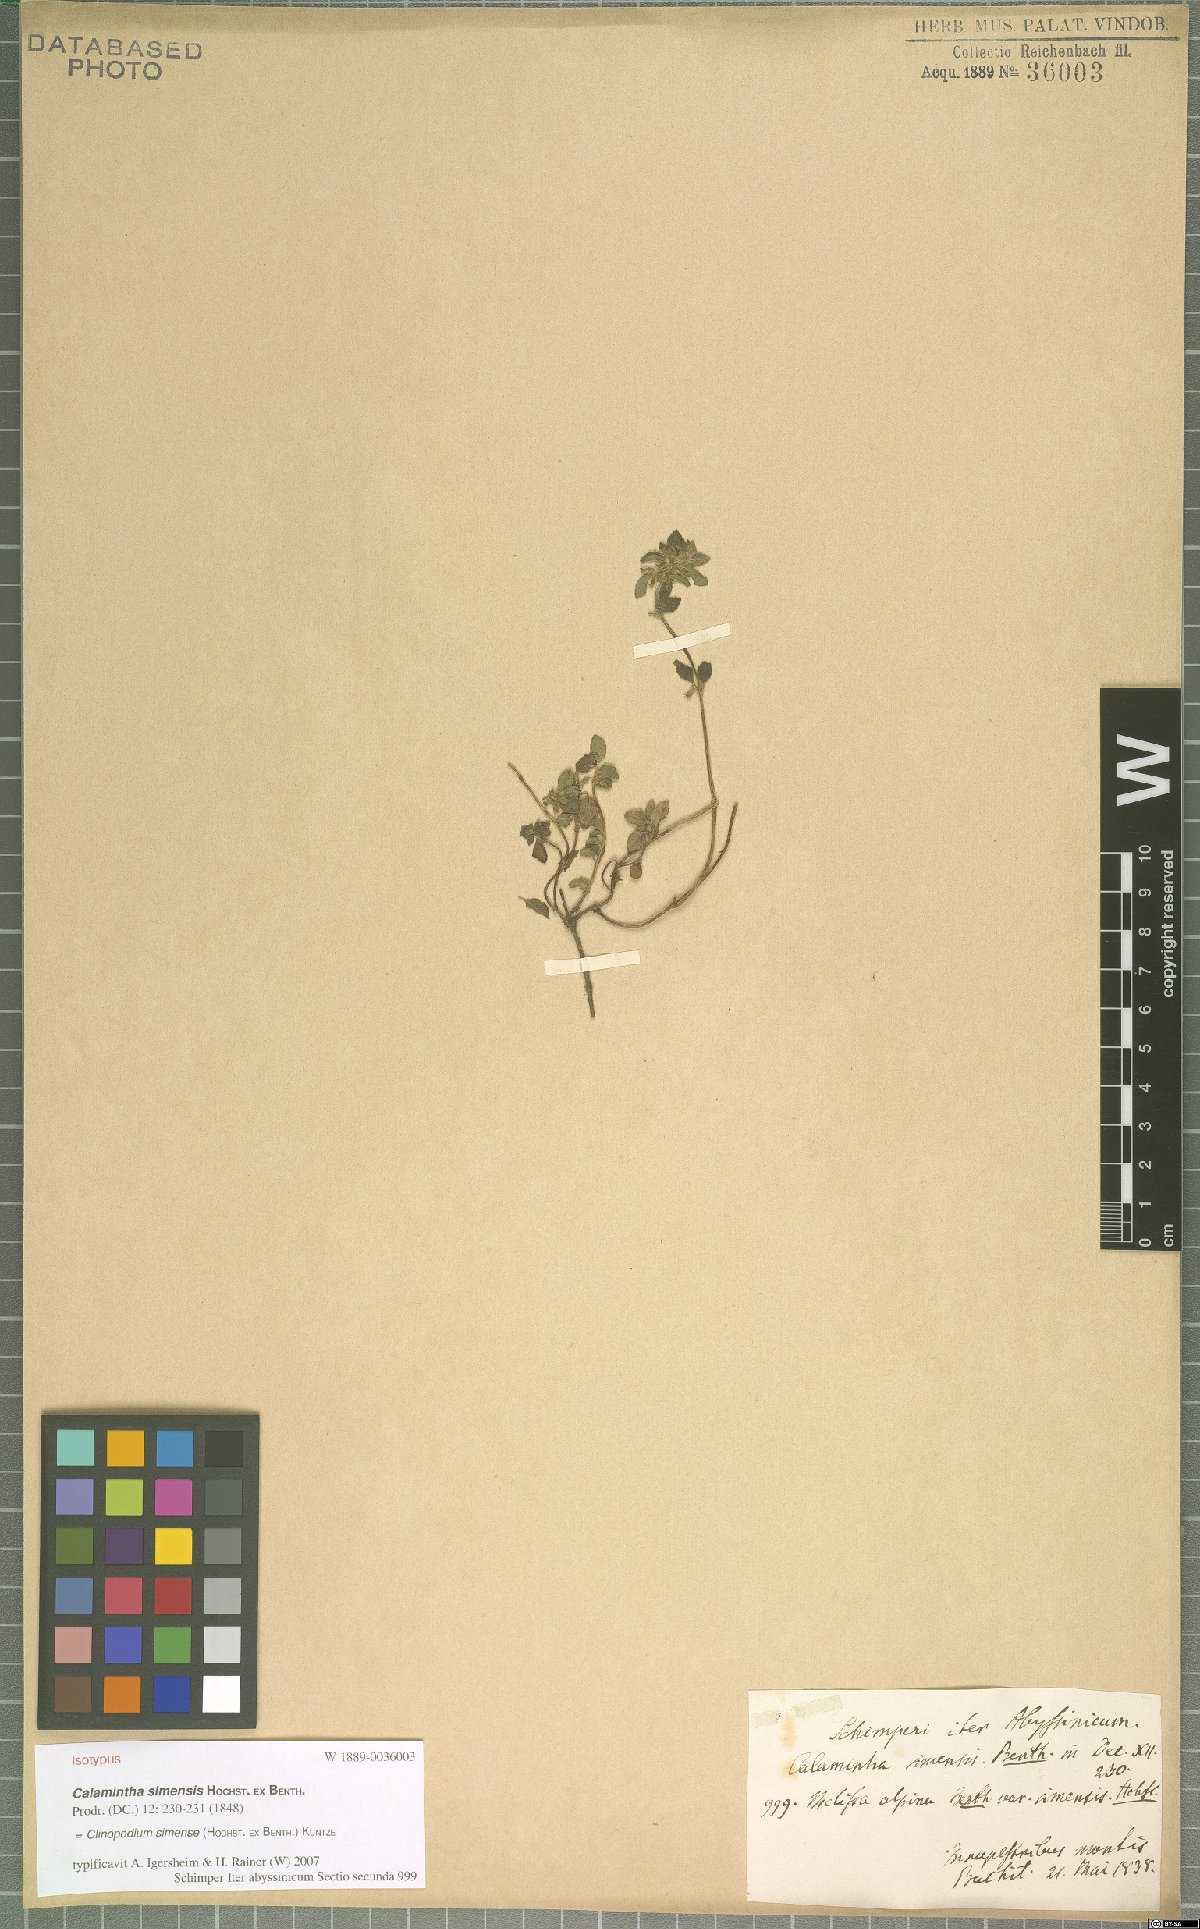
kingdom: Plantae
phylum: Tracheophyta
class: Magnoliopsida
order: Lamiales
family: Lamiaceae
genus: Clinopodium
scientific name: Clinopodium simense
